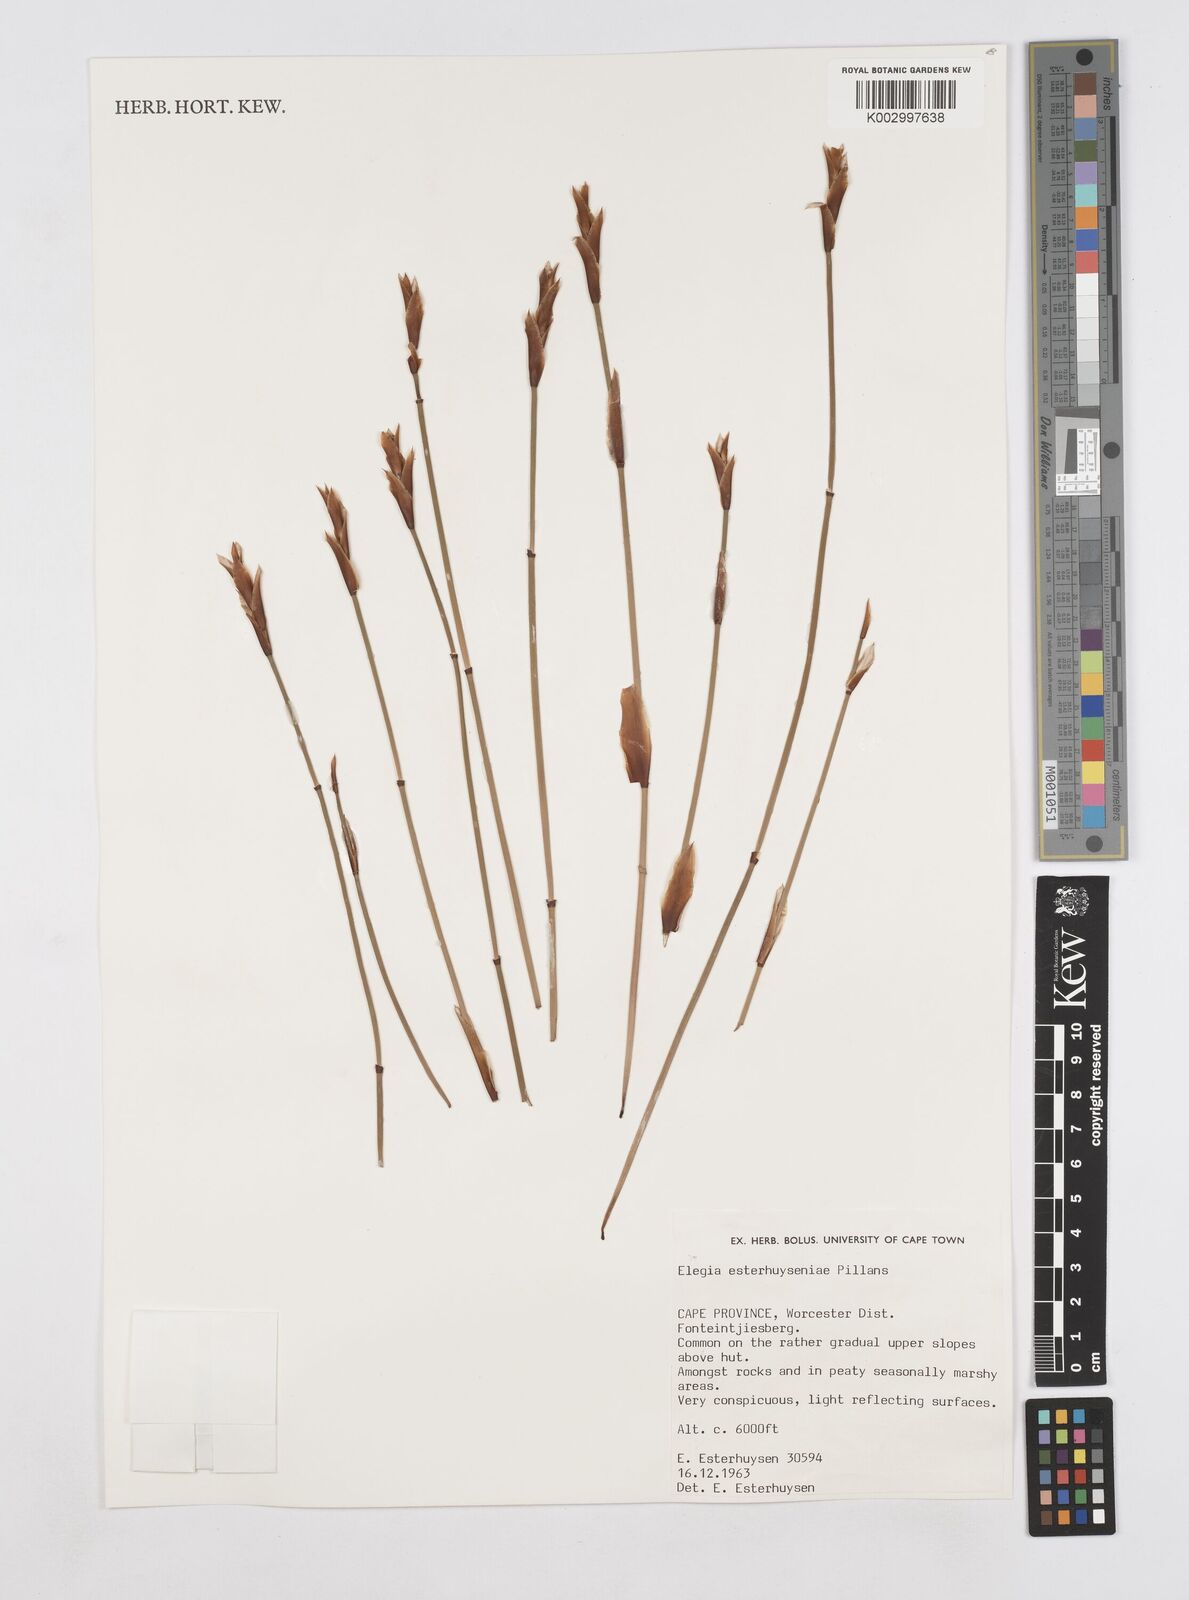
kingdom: Plantae
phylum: Tracheophyta
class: Liliopsida
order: Poales
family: Restionaceae
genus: Elegia
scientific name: Elegia esterhuyseniae
